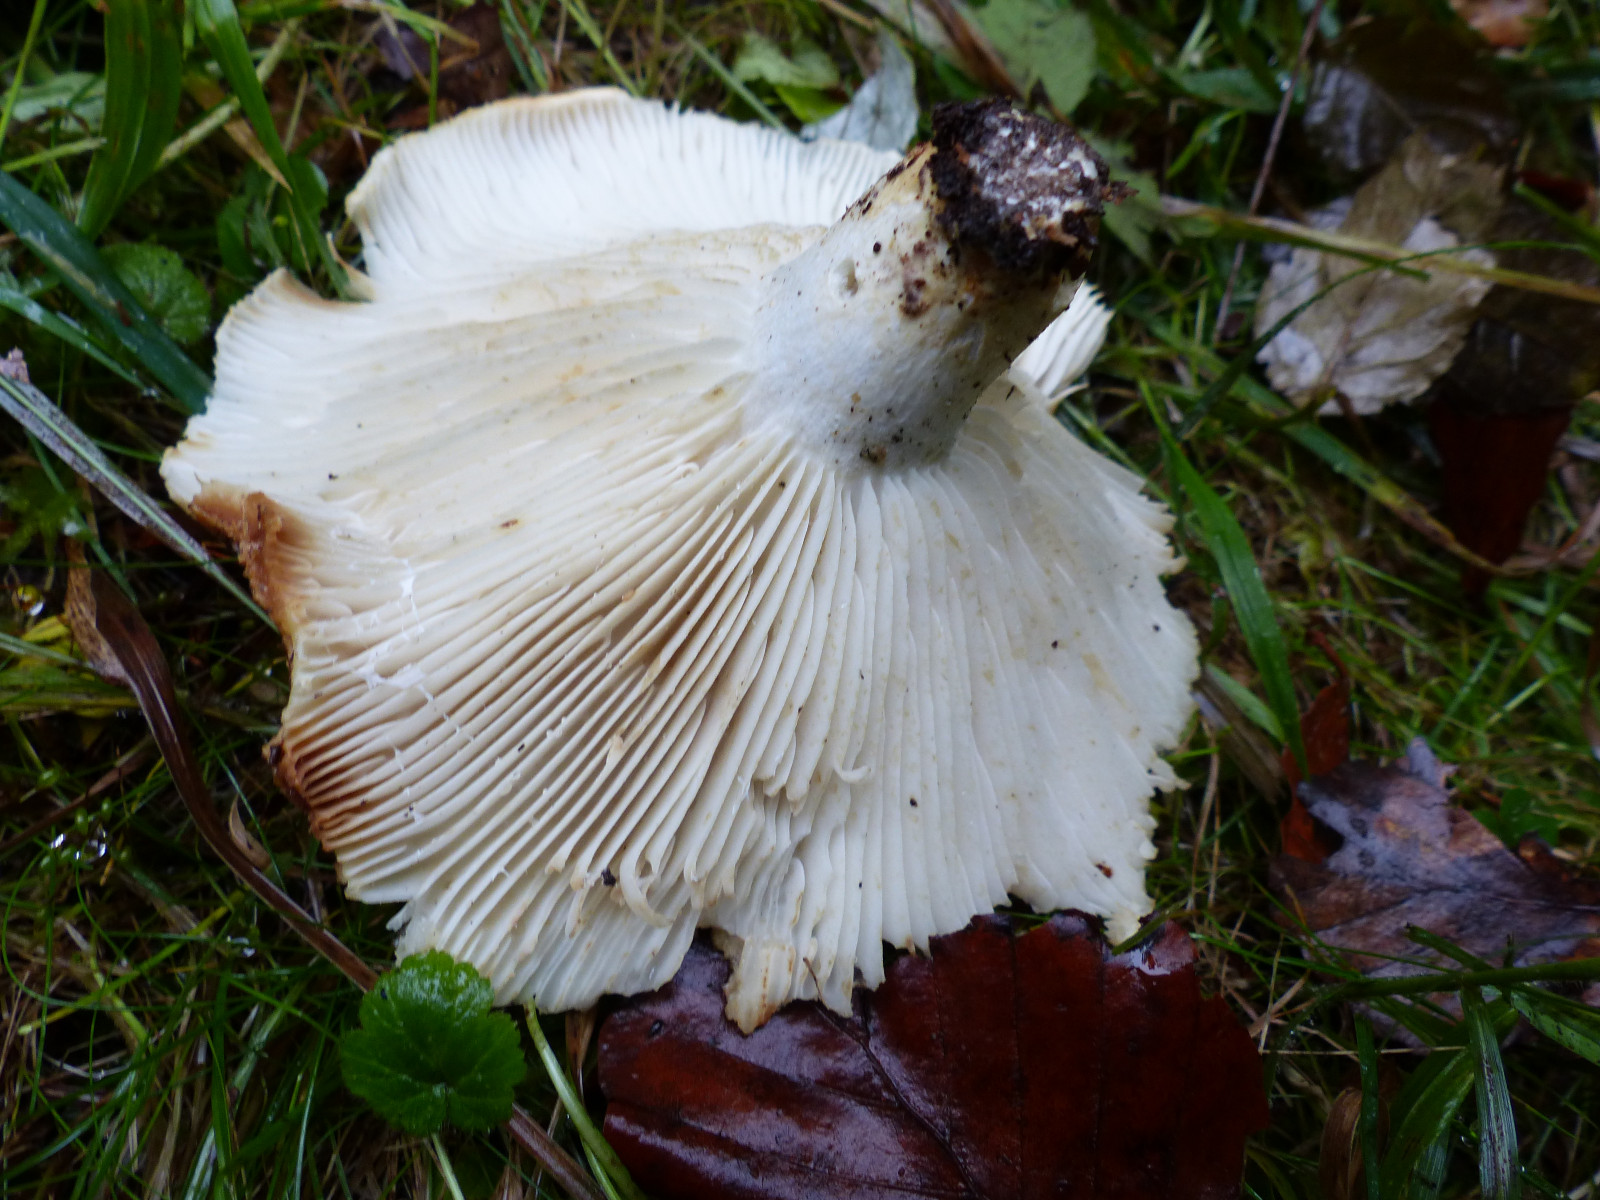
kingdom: Fungi
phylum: Basidiomycota
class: Agaricomycetes
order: Russulales
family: Russulaceae
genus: Russula
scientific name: Russula chloroides
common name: grønhalset tragt-skørhat
